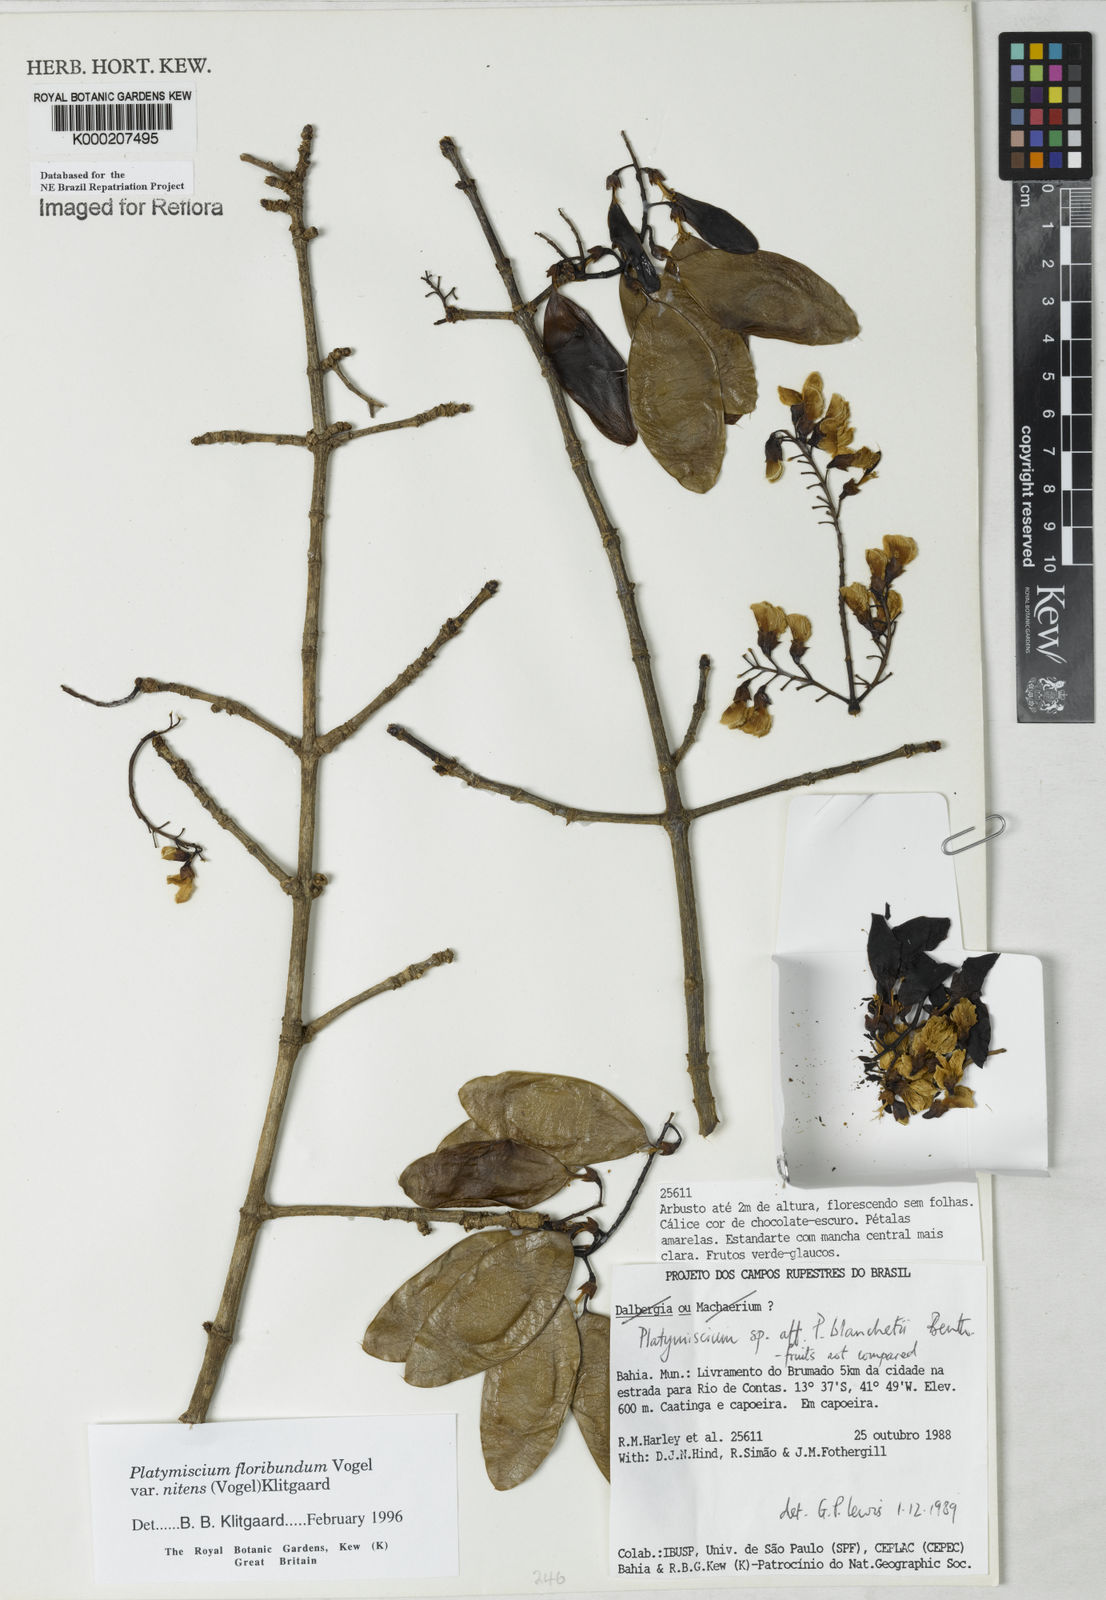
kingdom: Plantae
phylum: Tracheophyta
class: Magnoliopsida
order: Fabales
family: Fabaceae
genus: Platymiscium
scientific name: Platymiscium floribundum
